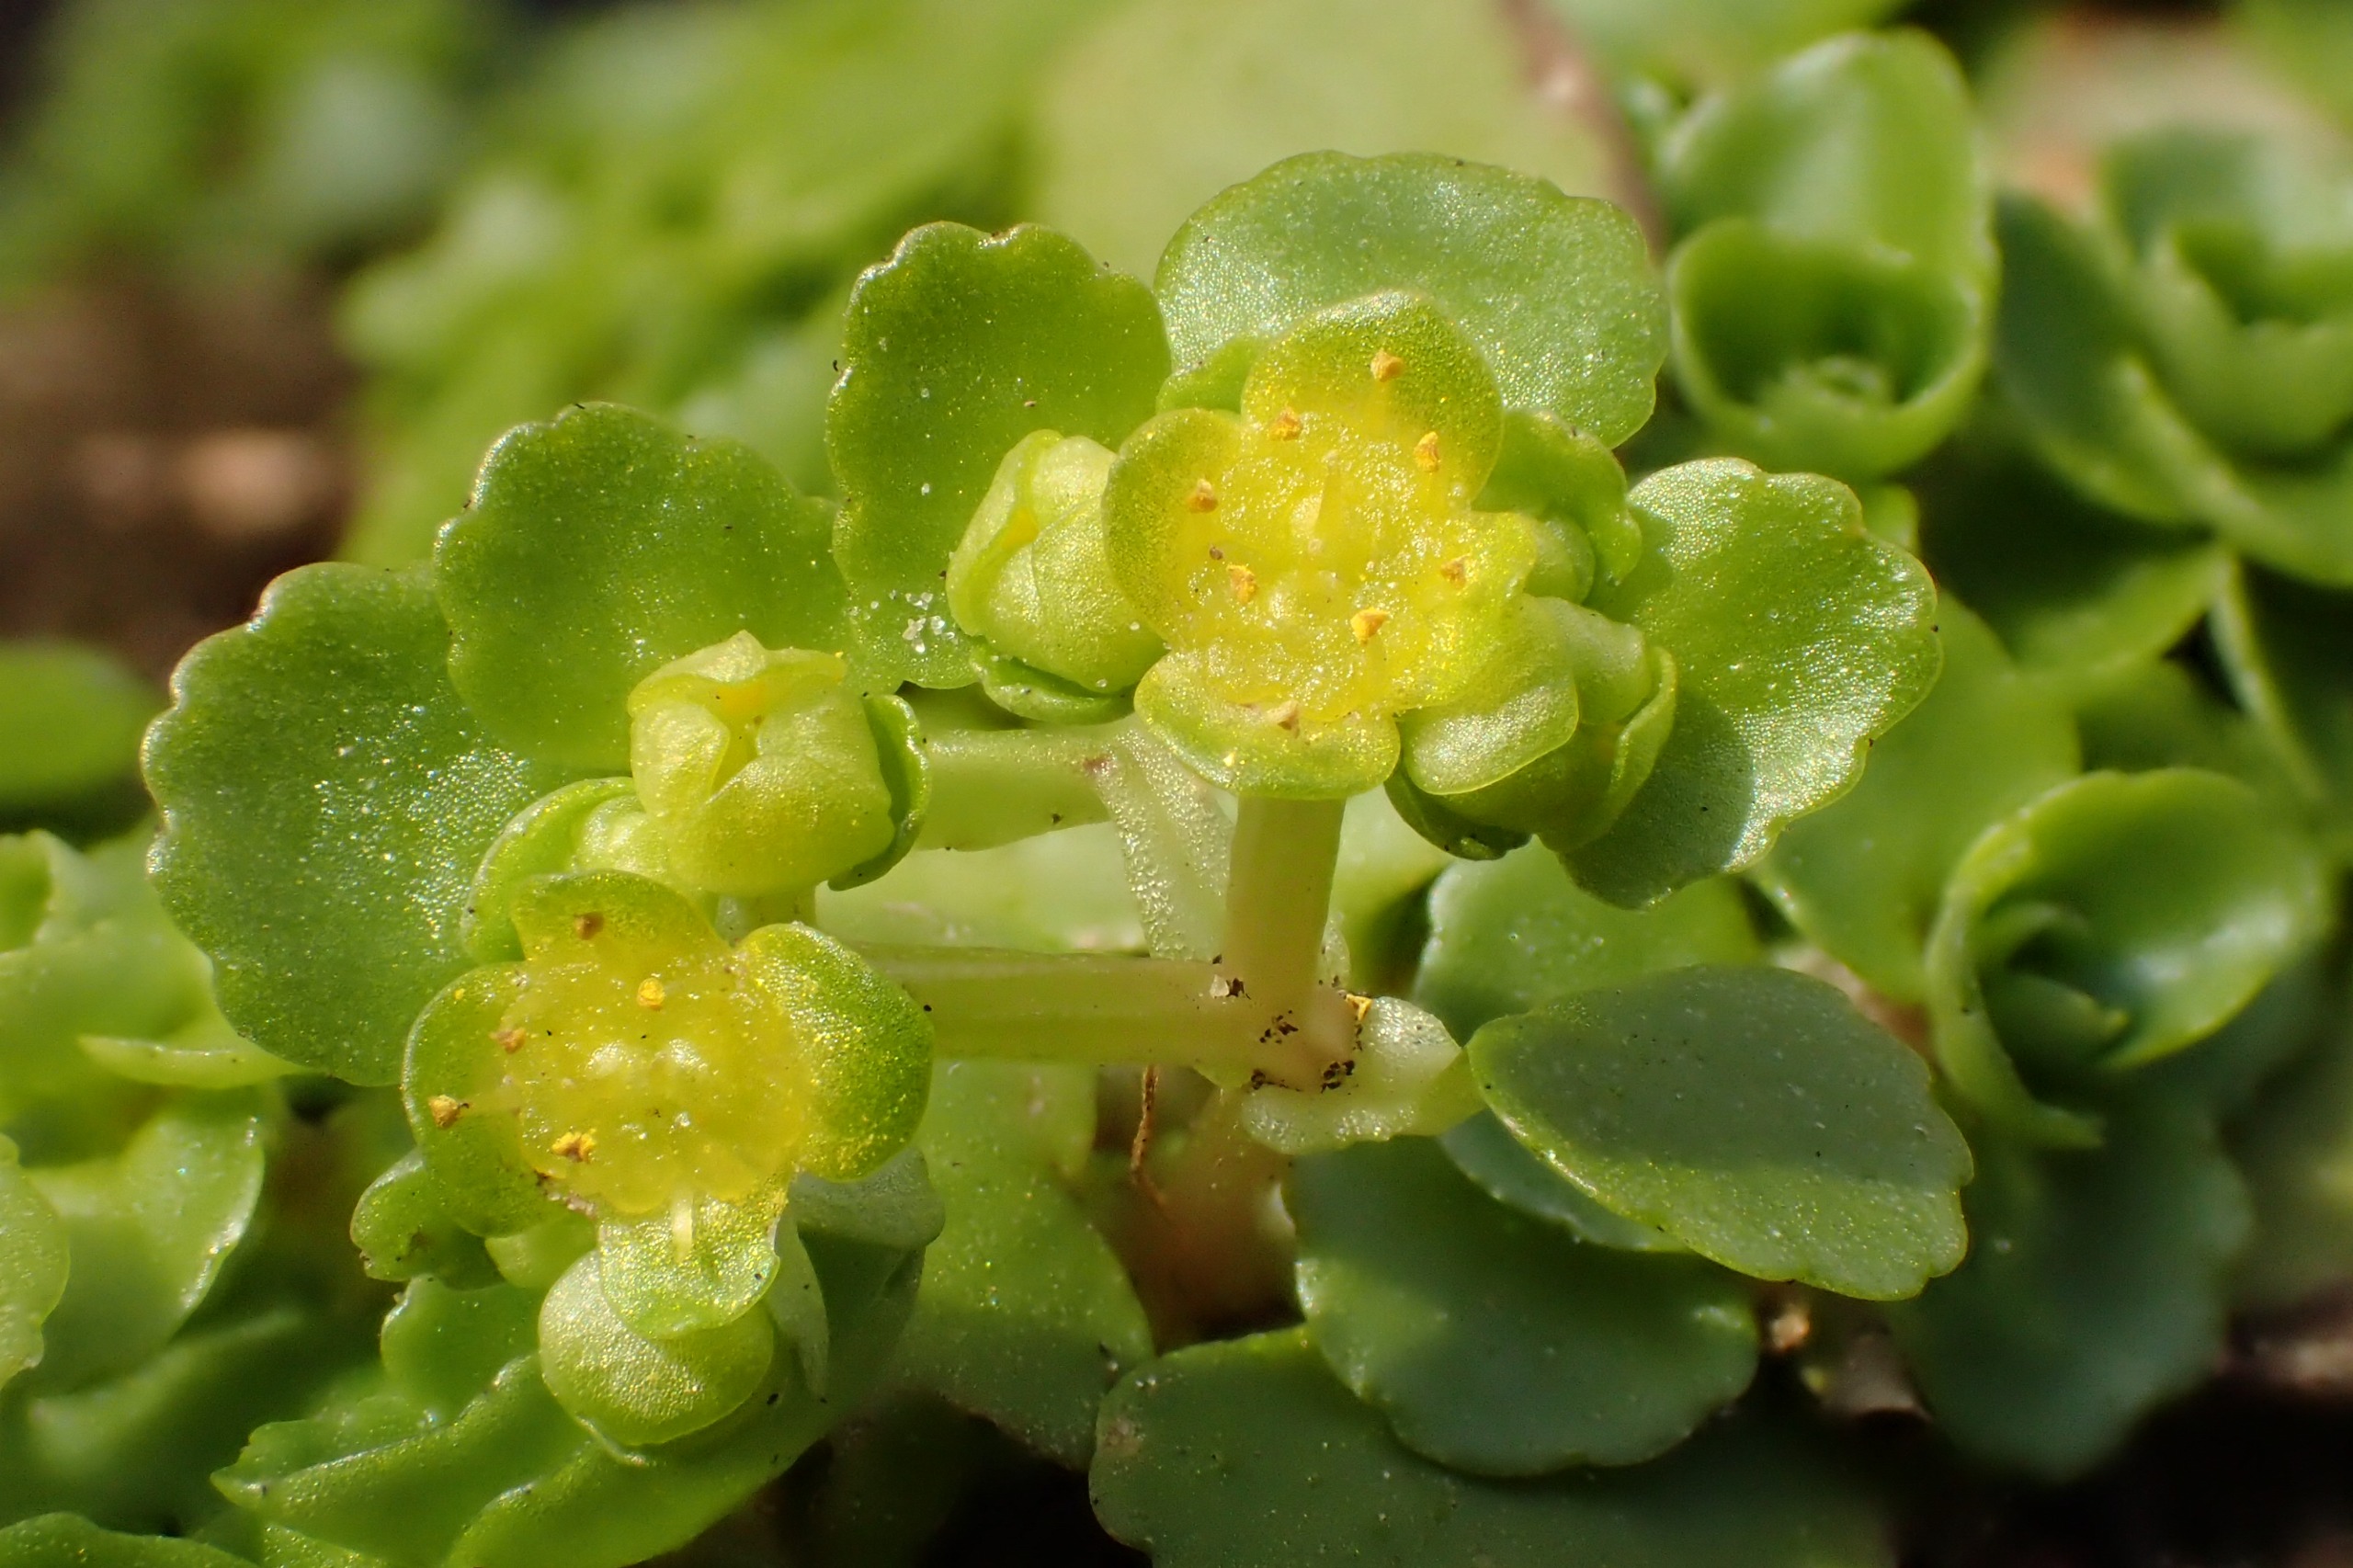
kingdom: Plantae
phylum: Tracheophyta
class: Magnoliopsida
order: Saxifragales
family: Saxifragaceae
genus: Chrysosplenium
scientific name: Chrysosplenium oppositifolium
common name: Småbladet milturt
